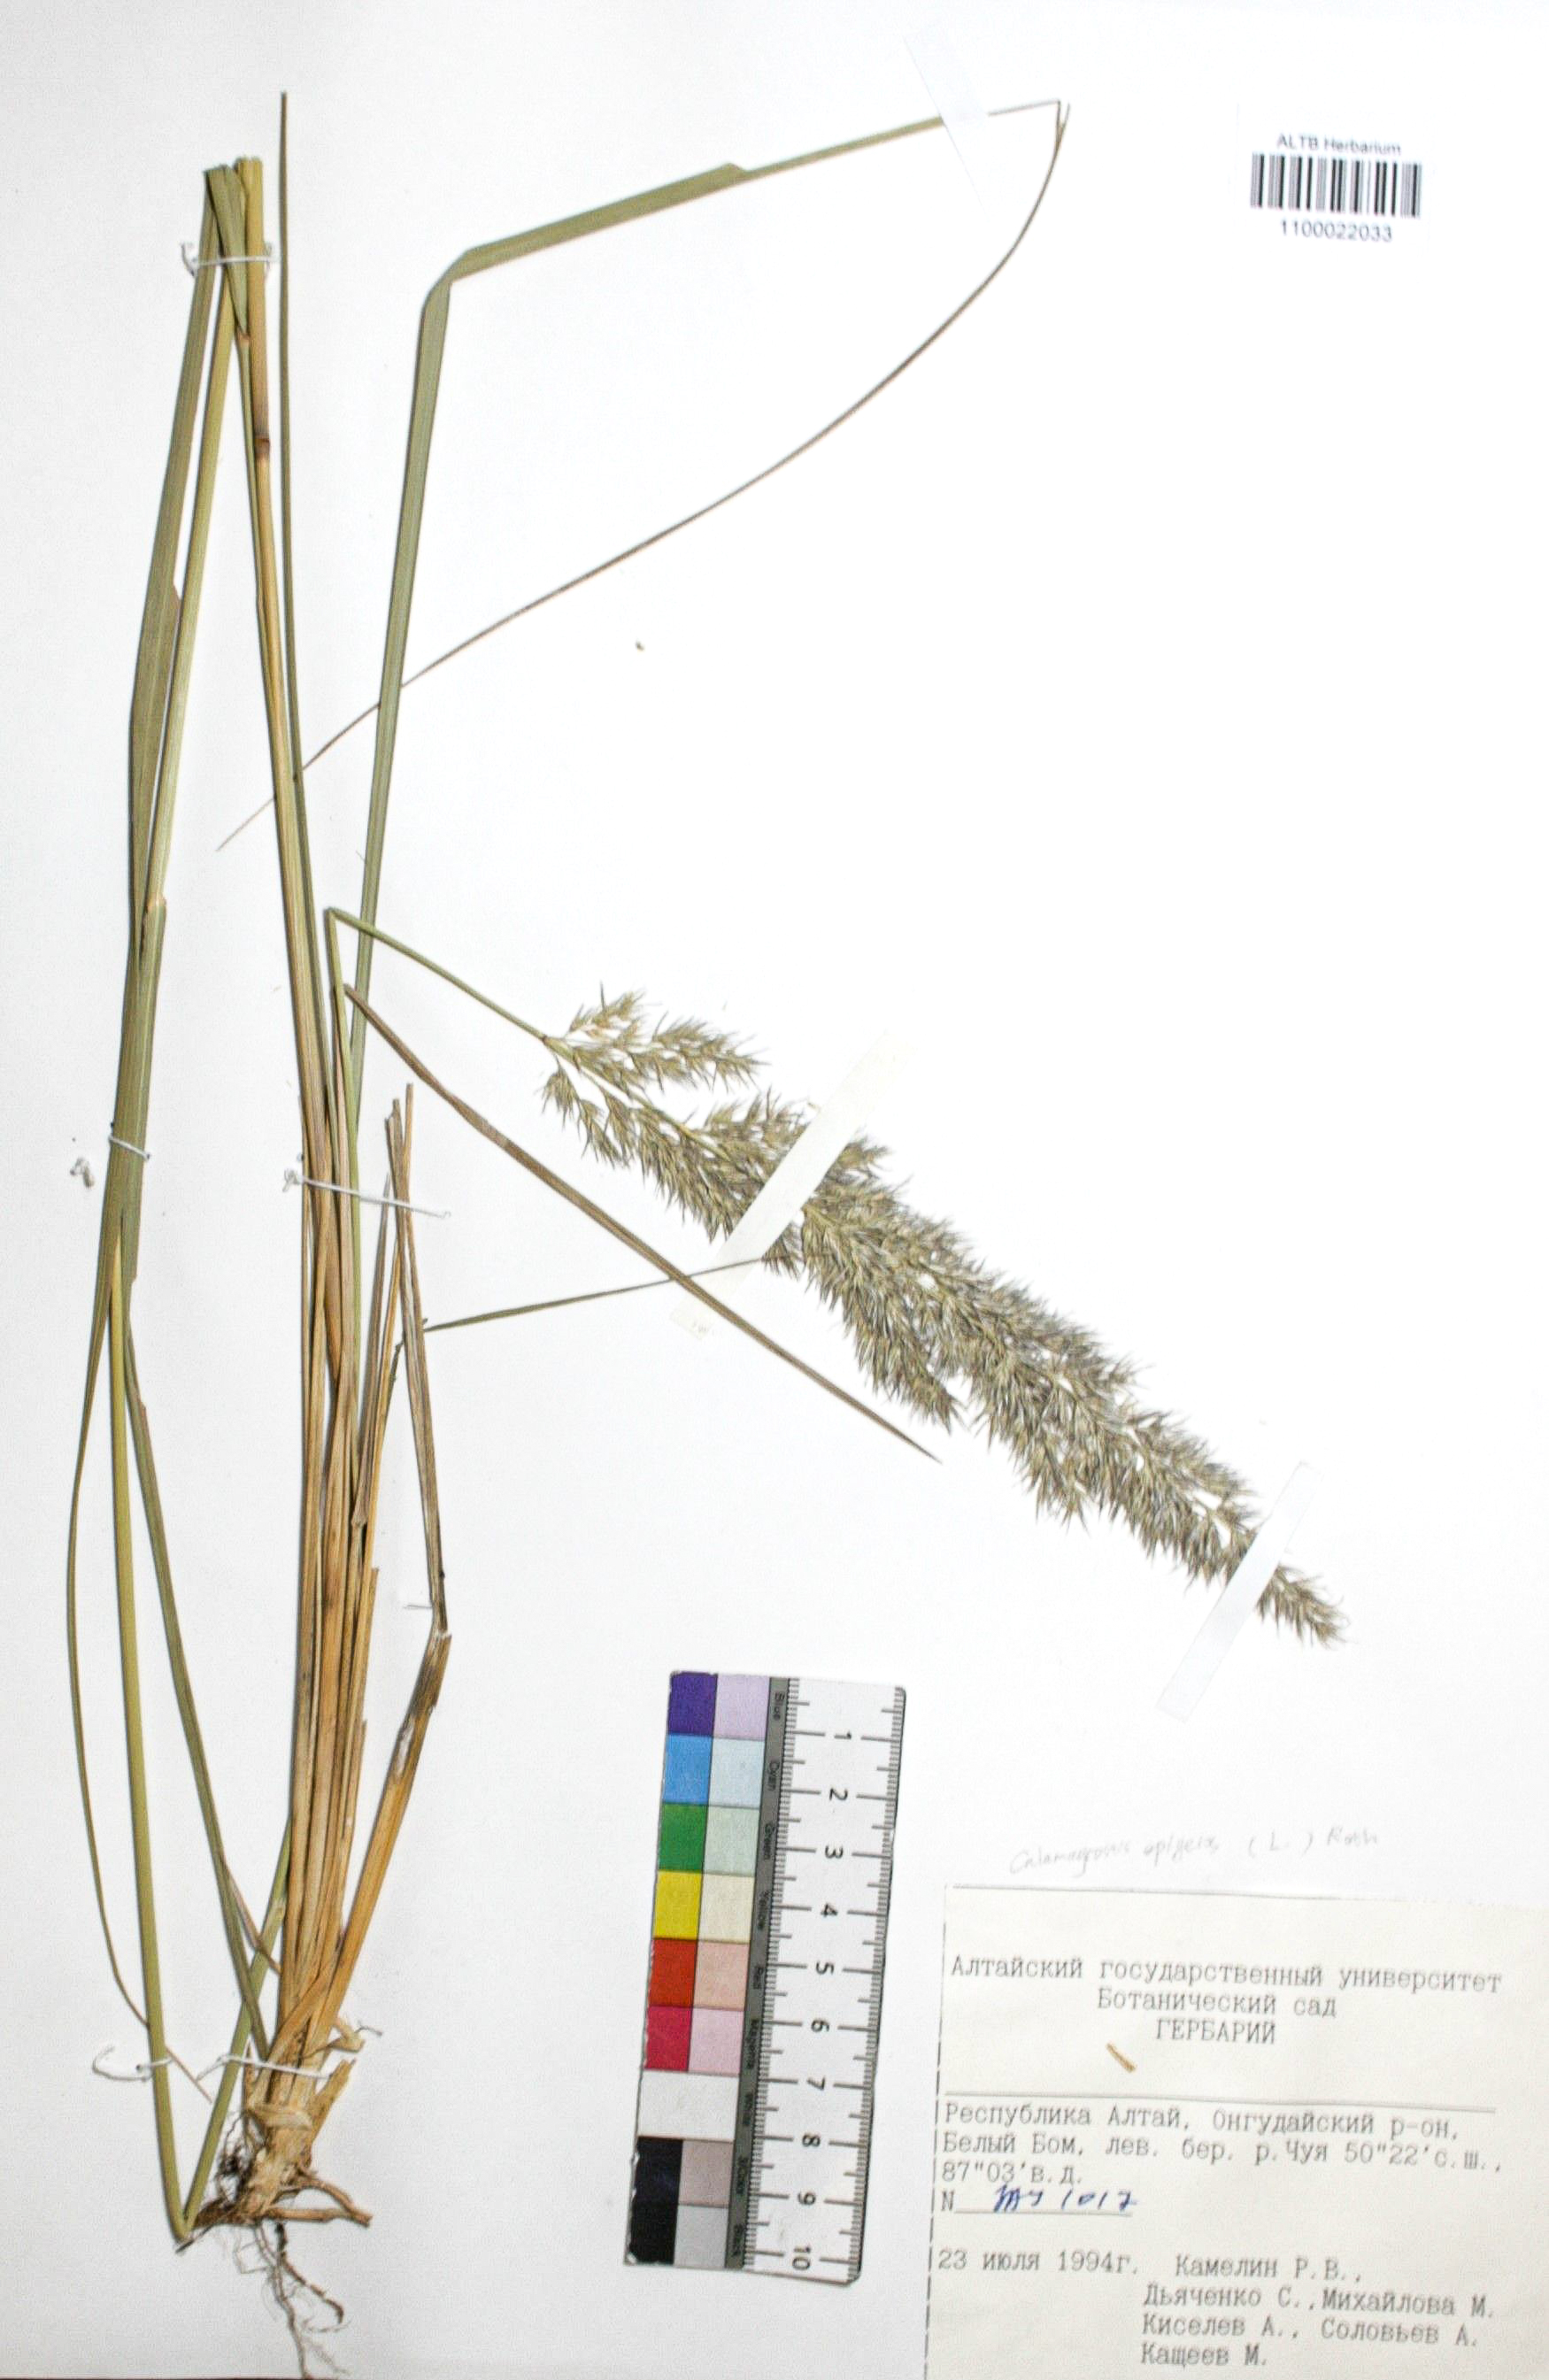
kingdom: Plantae
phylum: Tracheophyta
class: Liliopsida
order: Poales
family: Poaceae
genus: Calamagrostis
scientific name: Calamagrostis epigejos
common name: Wood small-reed
